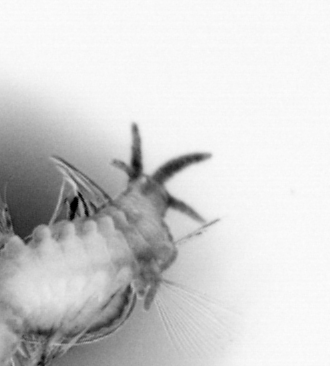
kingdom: Animalia
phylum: Annelida
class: Polychaeta
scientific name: Polychaeta
